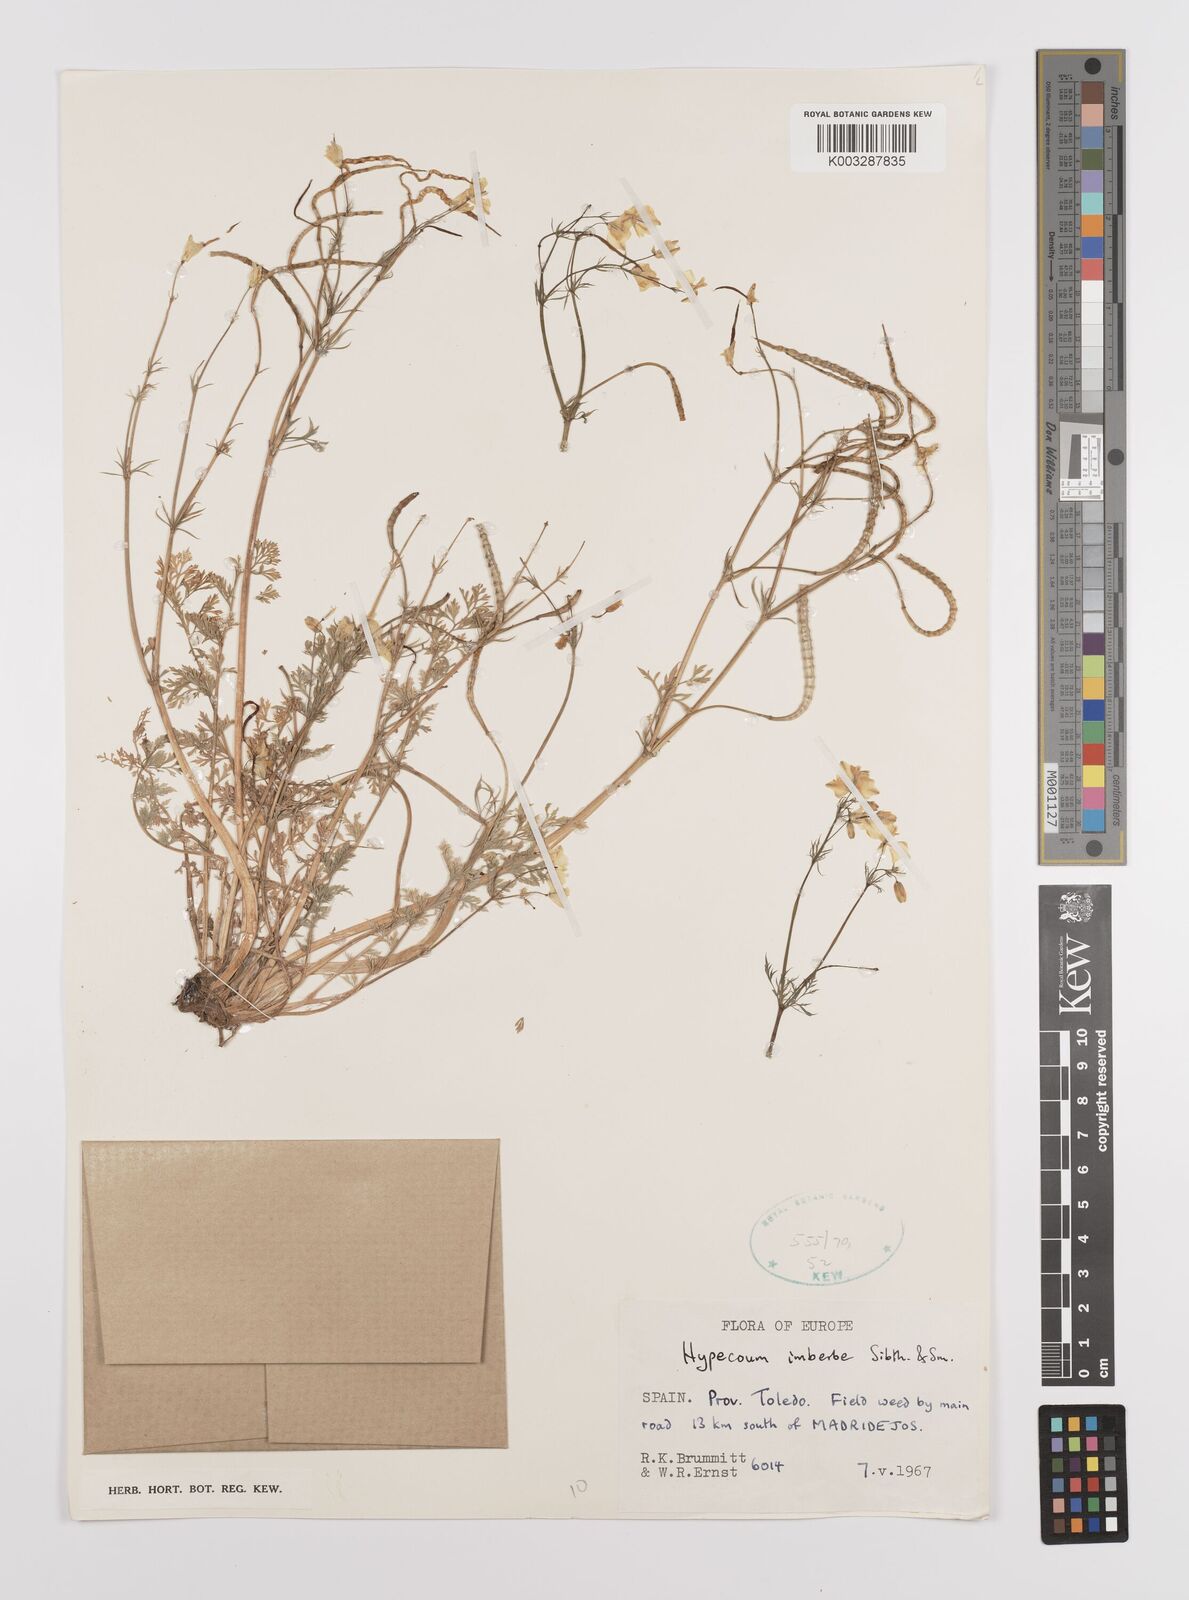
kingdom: Plantae
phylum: Tracheophyta
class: Magnoliopsida
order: Ranunculales
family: Papaveraceae
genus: Hypecoum
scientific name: Hypecoum imberbe
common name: Sicklefruit hypecoum
